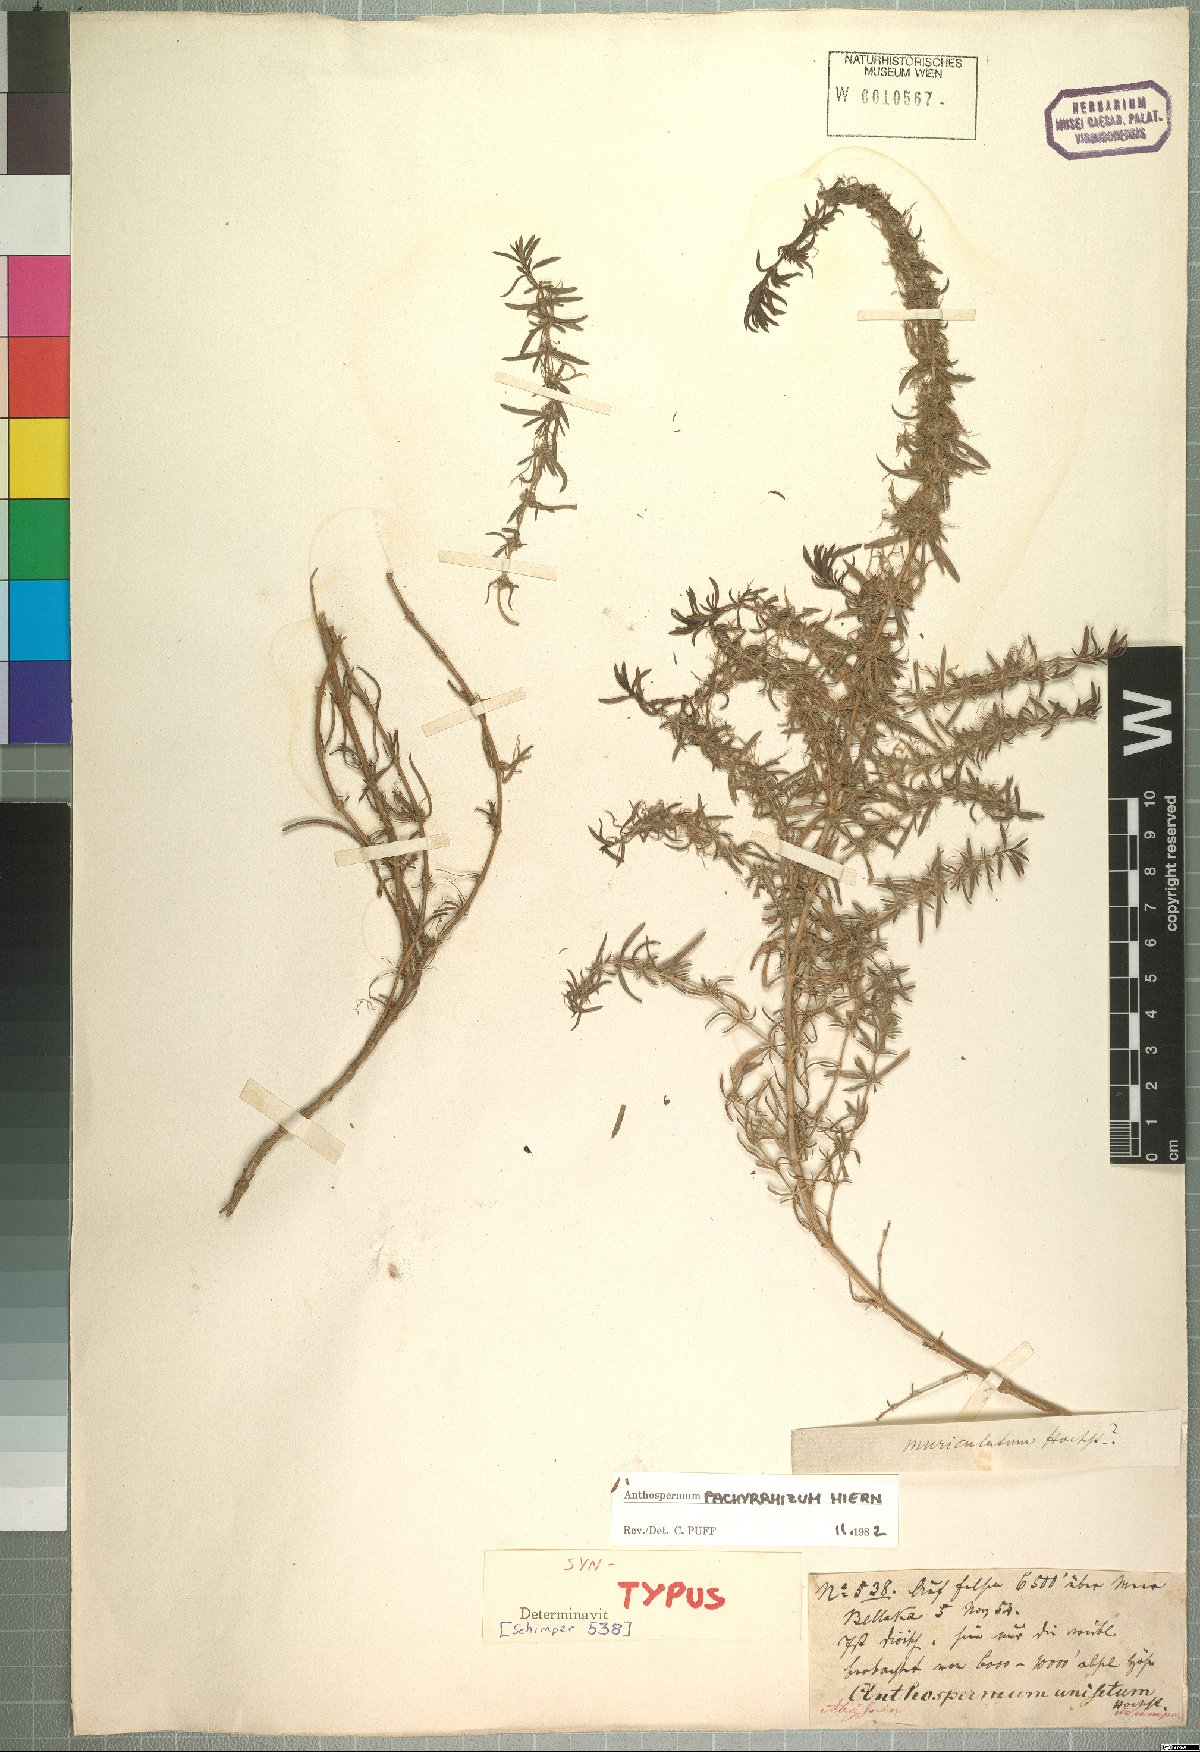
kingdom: Plantae
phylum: Tracheophyta
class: Magnoliopsida
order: Gentianales
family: Rubiaceae
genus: Anthospermum
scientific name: Anthospermum pachyrrhizum
